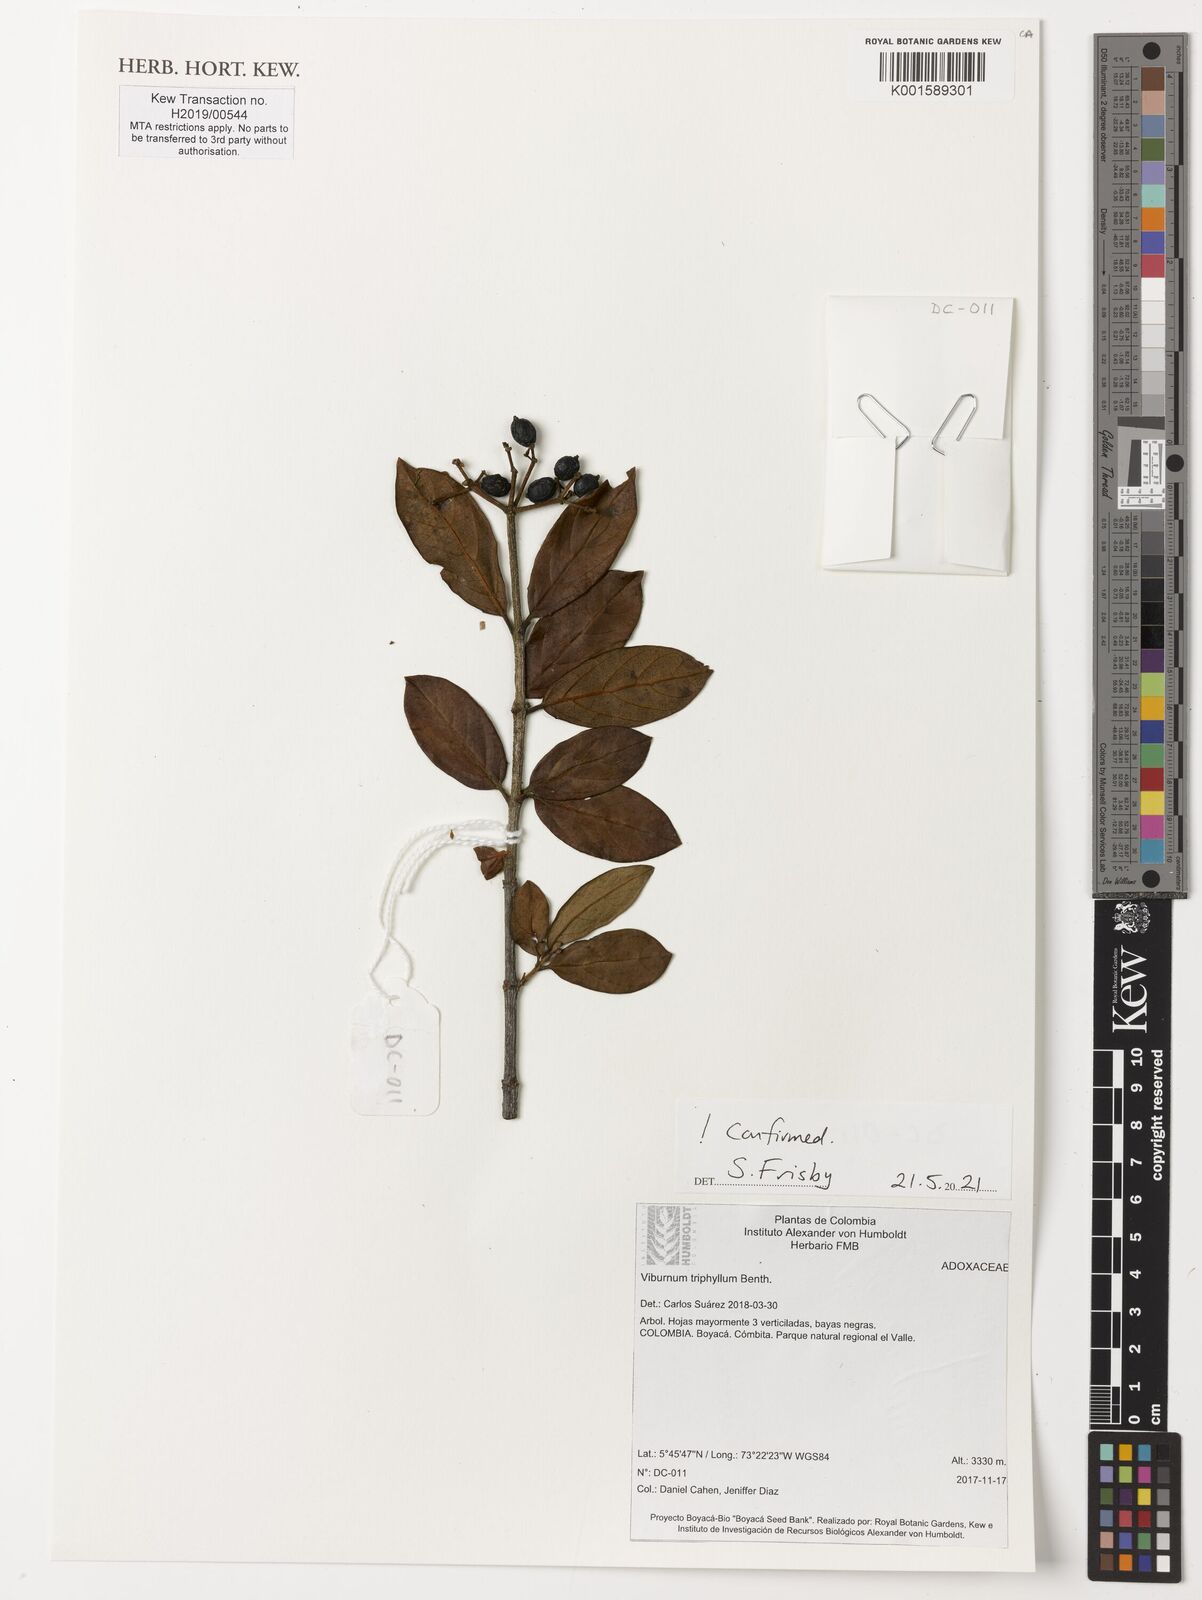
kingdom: Plantae
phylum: Tracheophyta
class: Magnoliopsida
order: Dipsacales
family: Viburnaceae
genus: Viburnum
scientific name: Viburnum triphyllum
